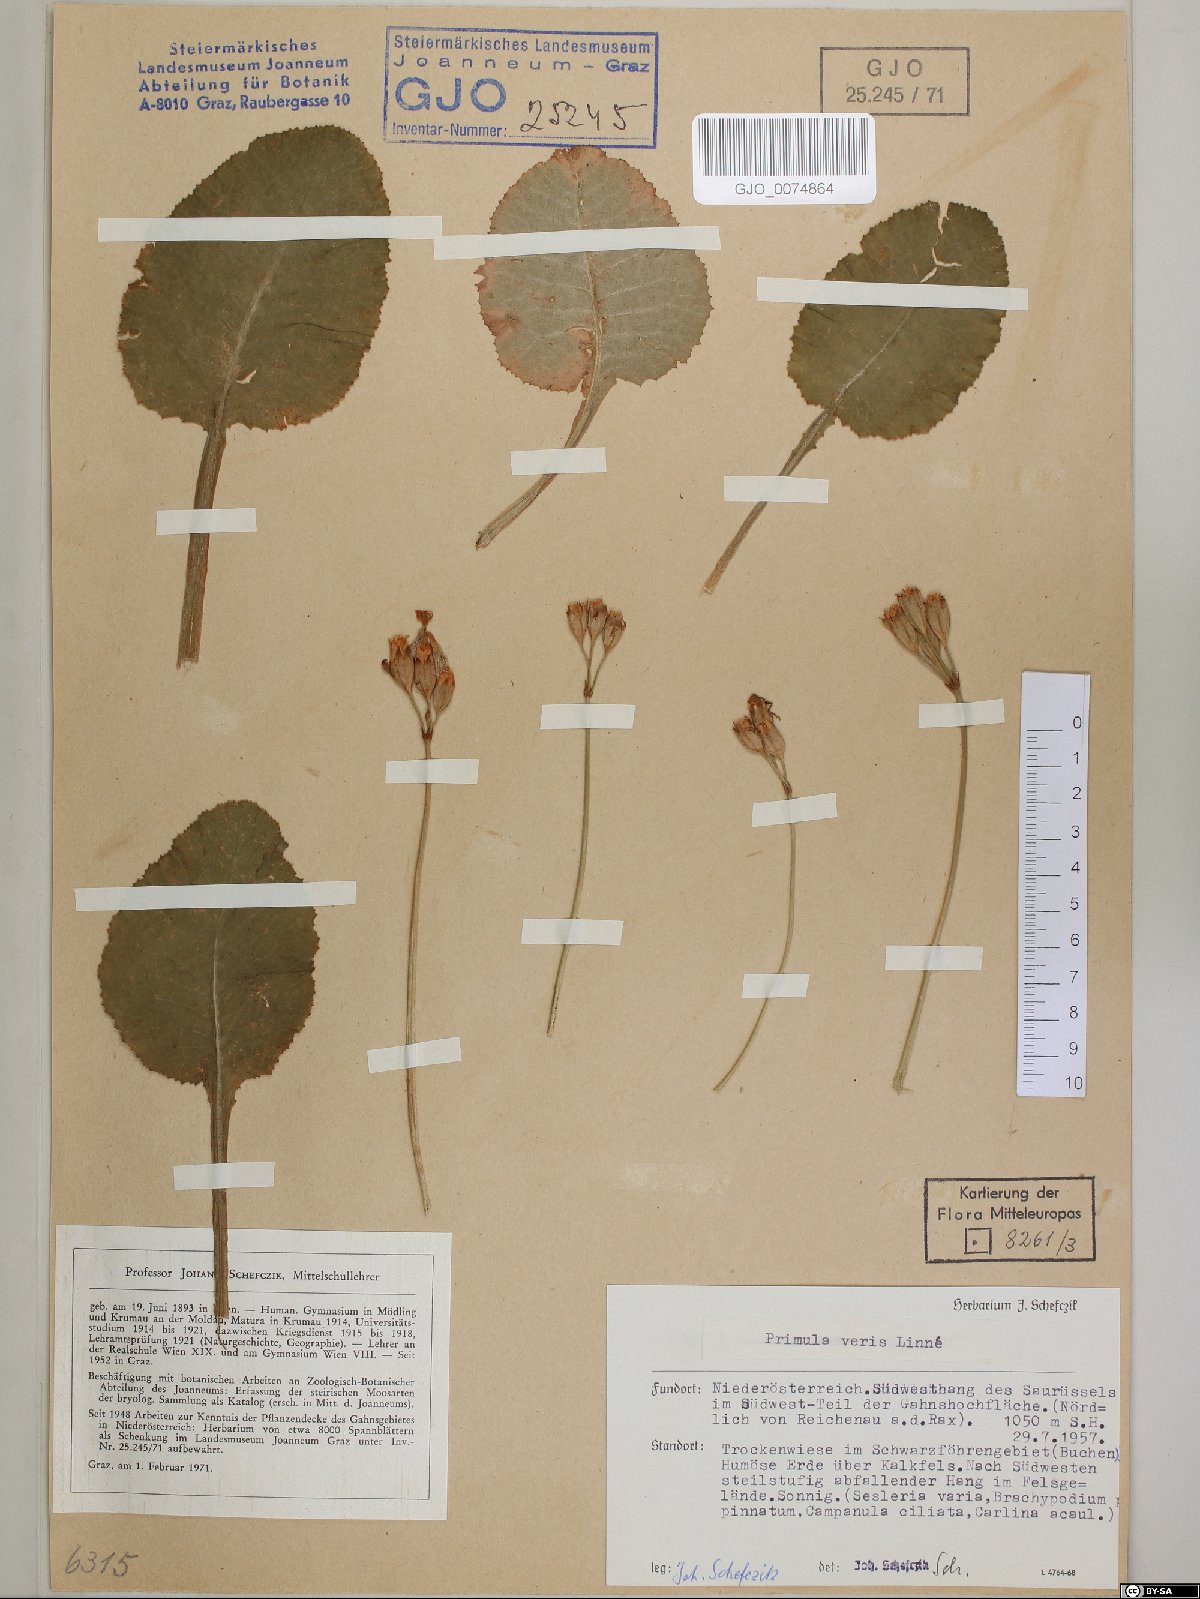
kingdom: Plantae
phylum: Tracheophyta
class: Magnoliopsida
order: Ericales
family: Primulaceae
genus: Primula
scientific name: Primula veris
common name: Cowslip
